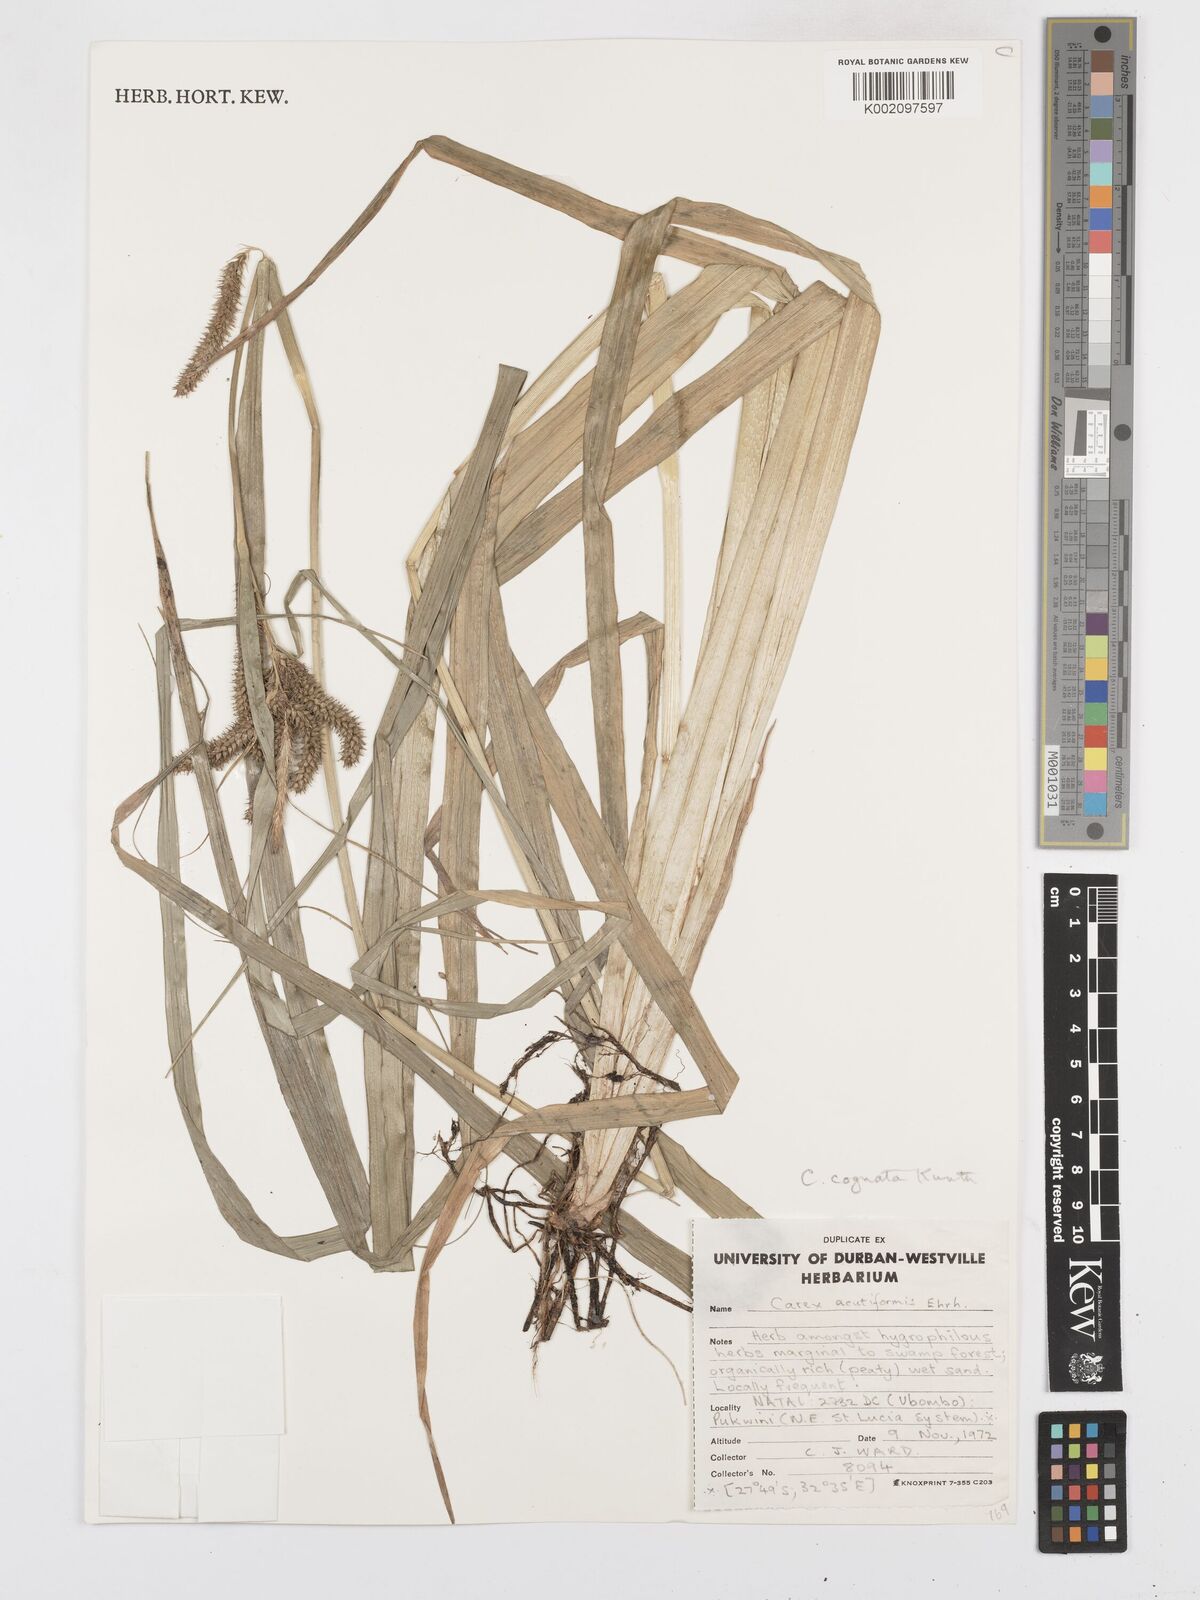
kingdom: Plantae
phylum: Tracheophyta
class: Liliopsida
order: Poales
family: Cyperaceae
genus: Carex
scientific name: Carex cognata
